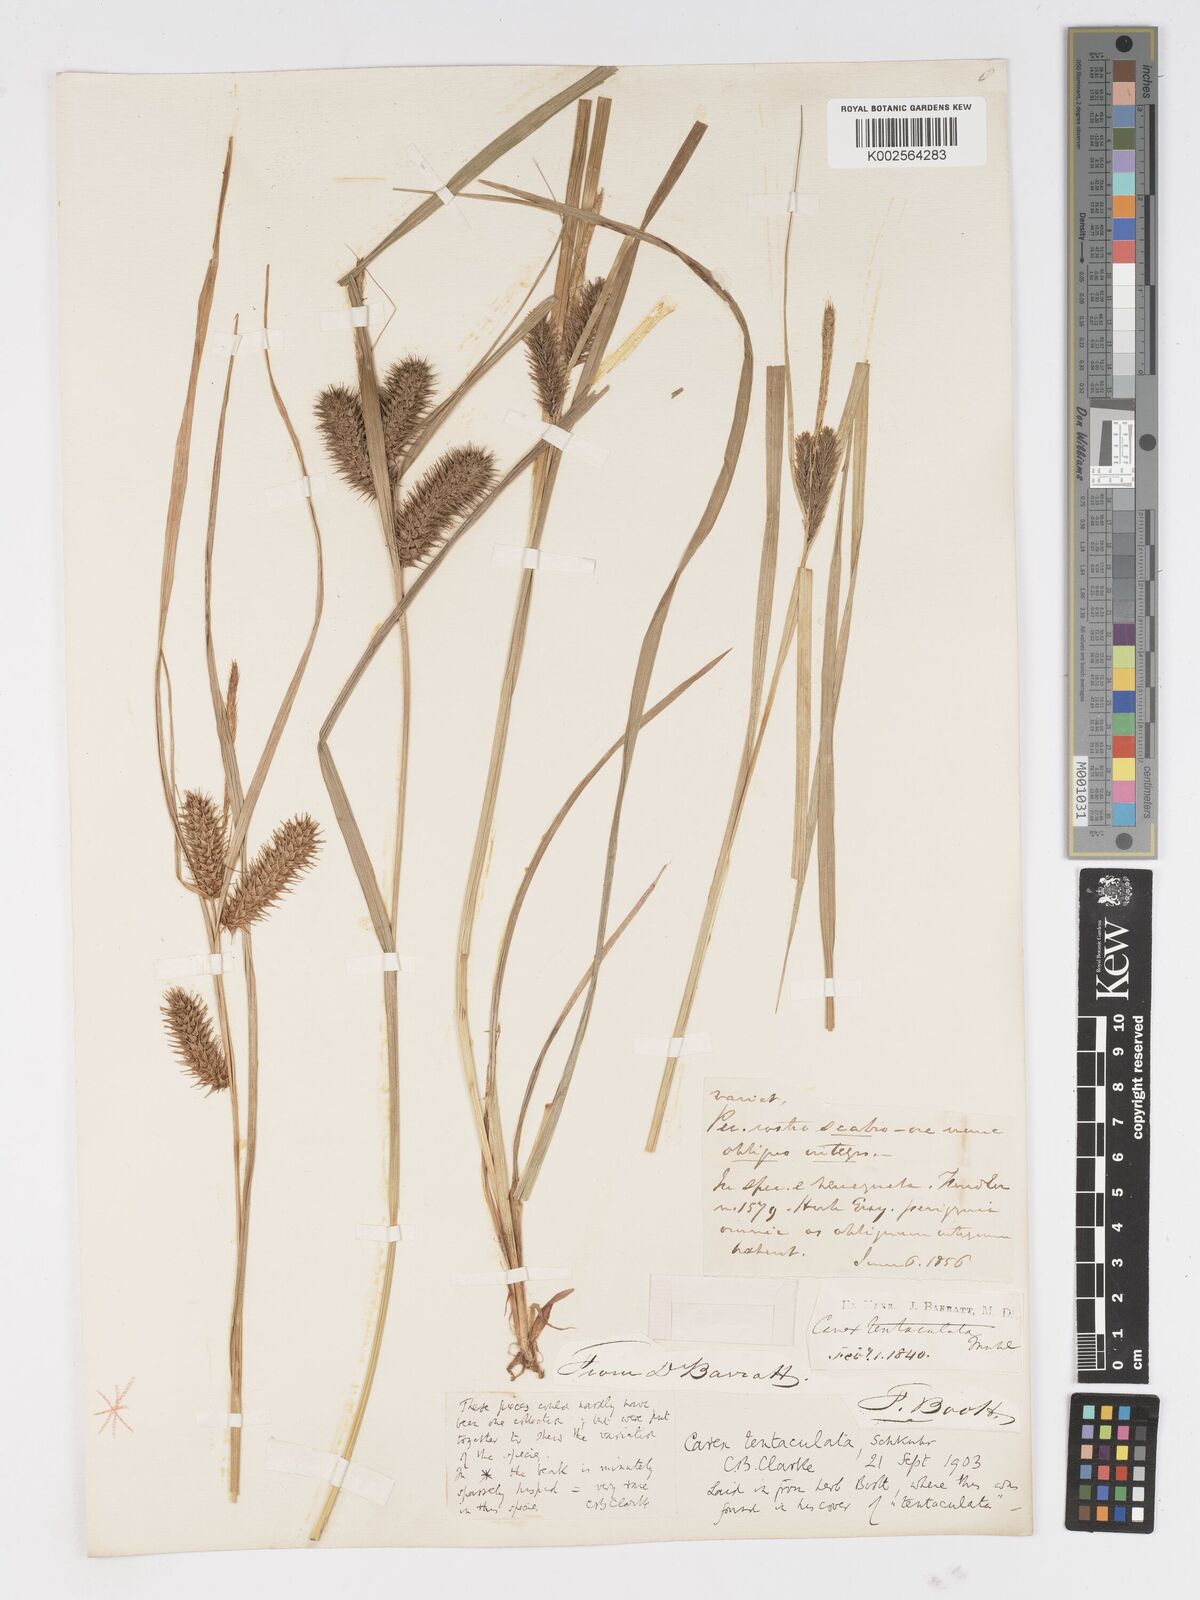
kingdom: Plantae
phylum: Tracheophyta
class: Liliopsida
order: Poales
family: Cyperaceae
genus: Carex
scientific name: Carex lurida
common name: Sallow sedge
